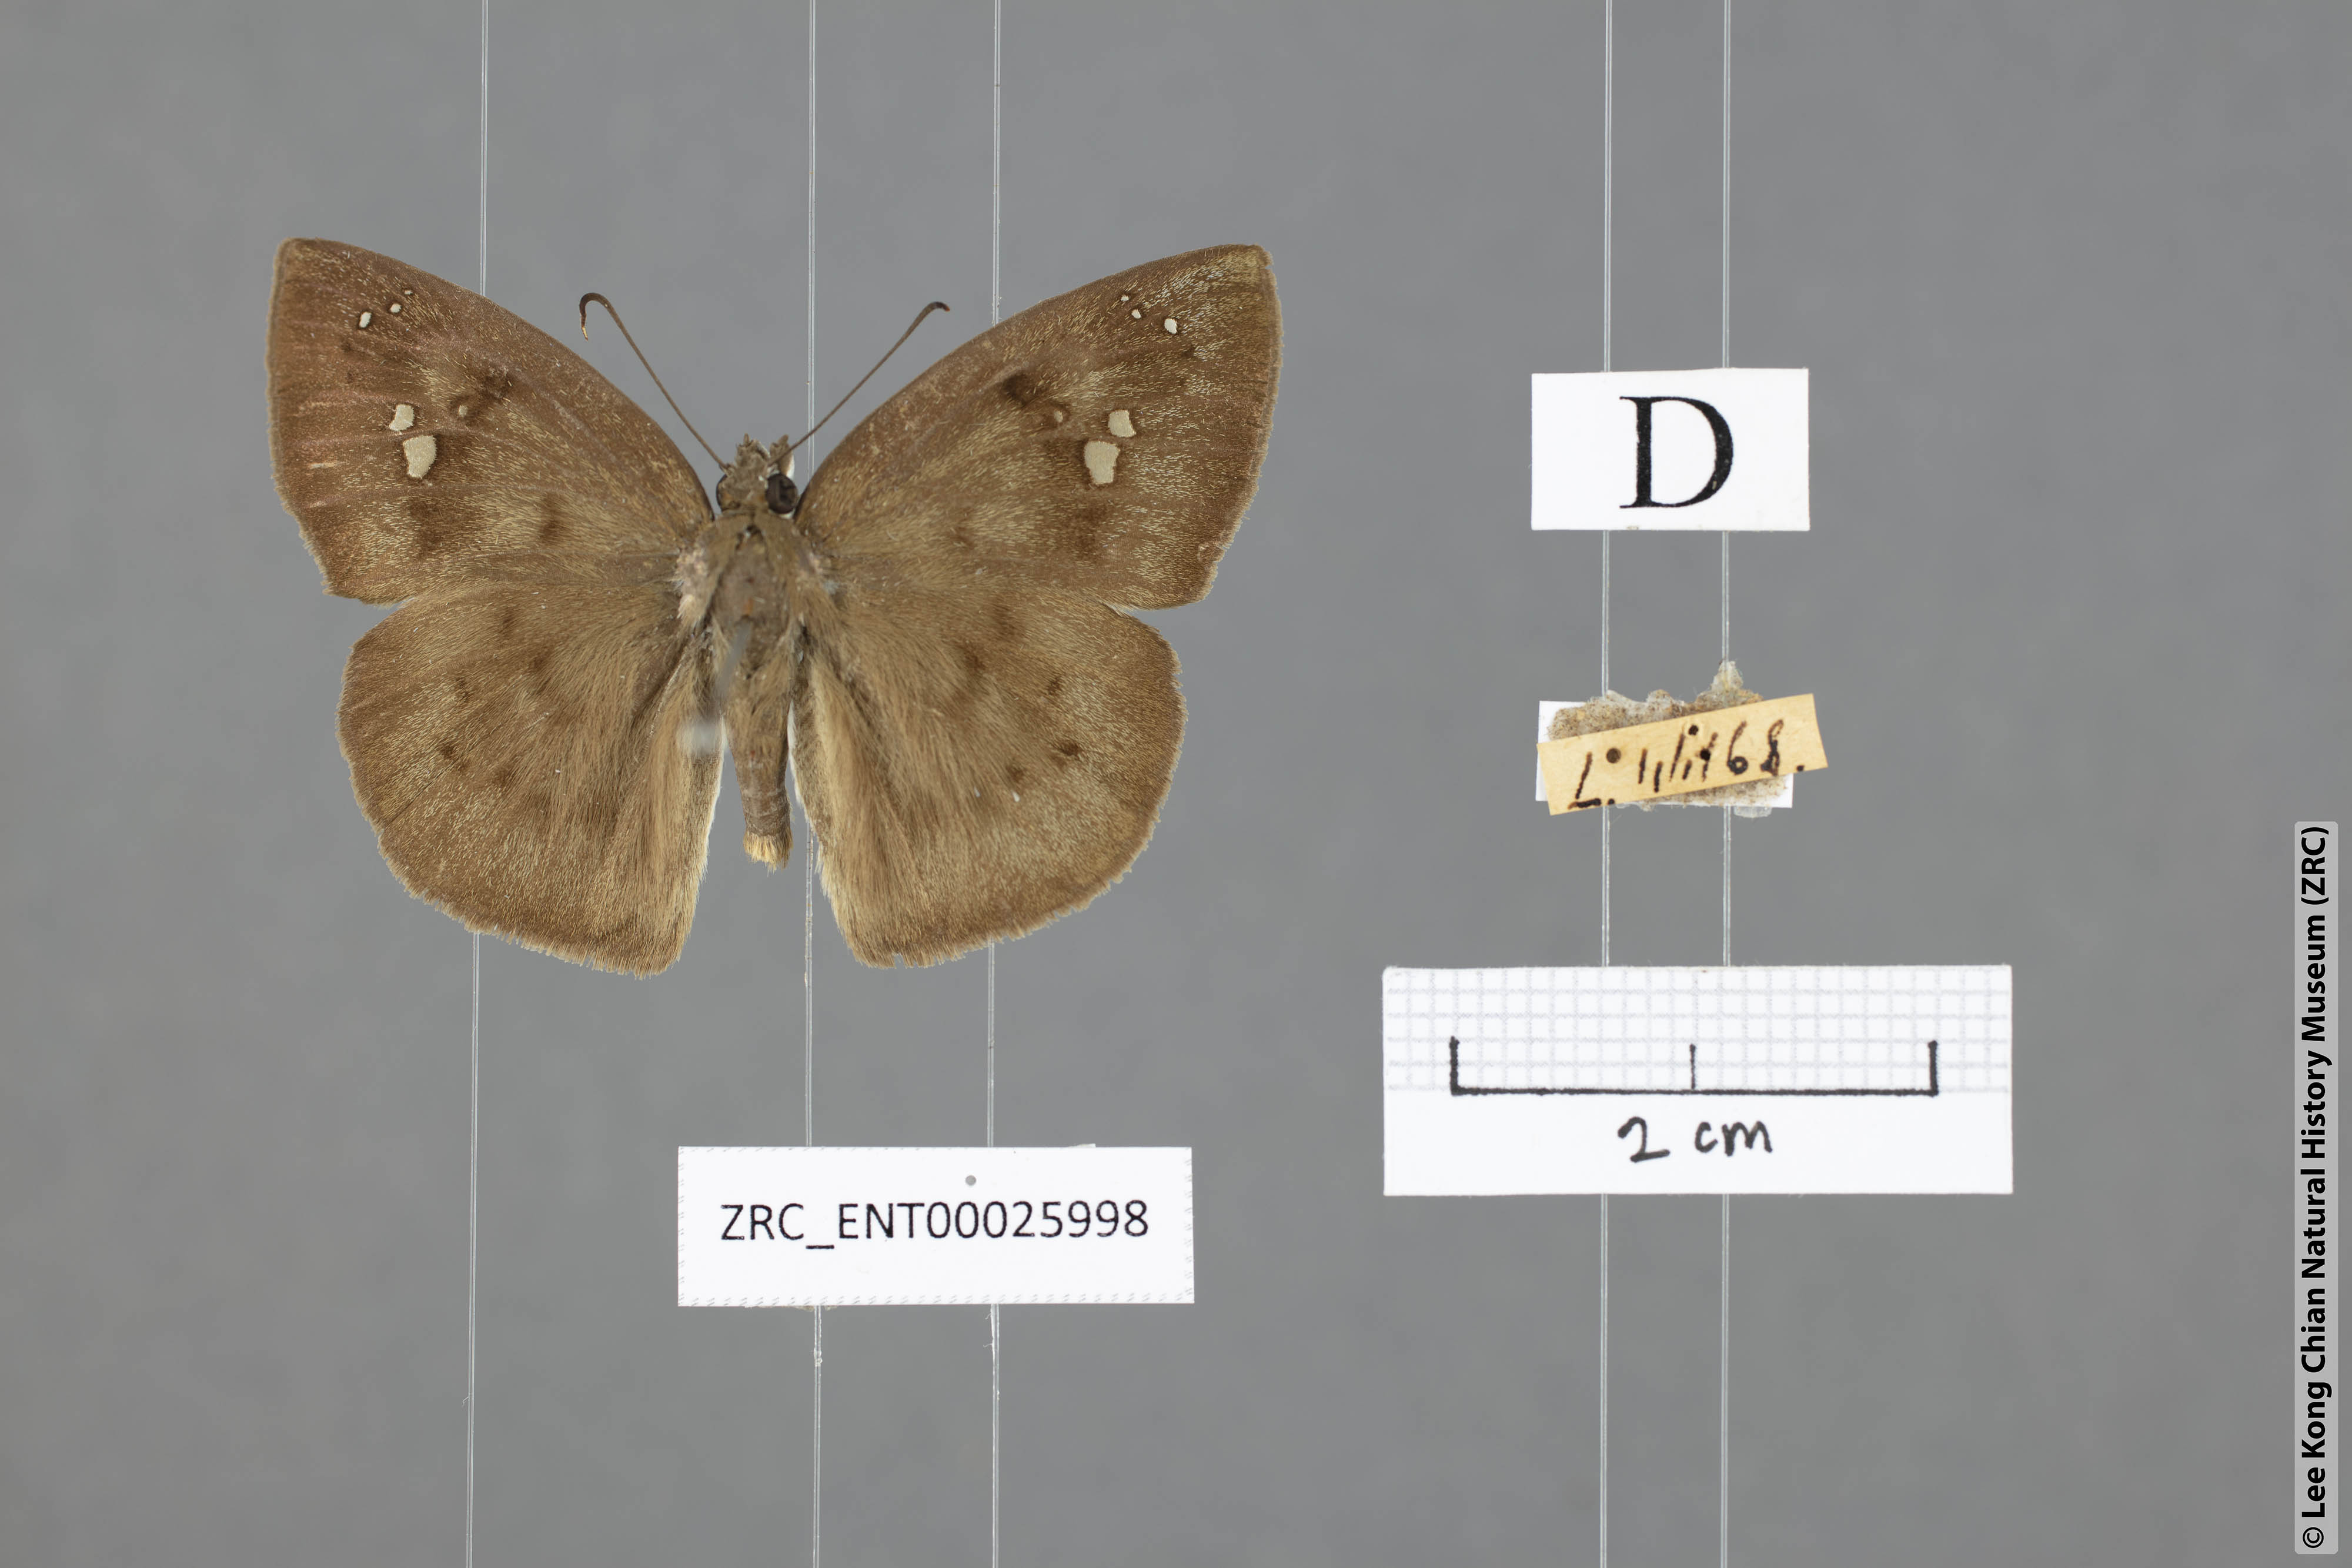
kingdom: Animalia
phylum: Arthropoda
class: Insecta
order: Lepidoptera
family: Hesperiidae
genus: Tagiades
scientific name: Tagiades japetus
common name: Pied flat
